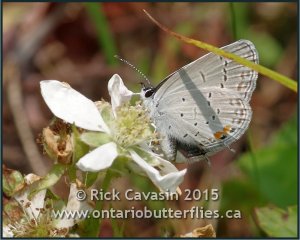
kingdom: Animalia
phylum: Arthropoda
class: Insecta
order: Lepidoptera
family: Lycaenidae
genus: Elkalyce
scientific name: Elkalyce comyntas
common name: Eastern Tailed-Blue
